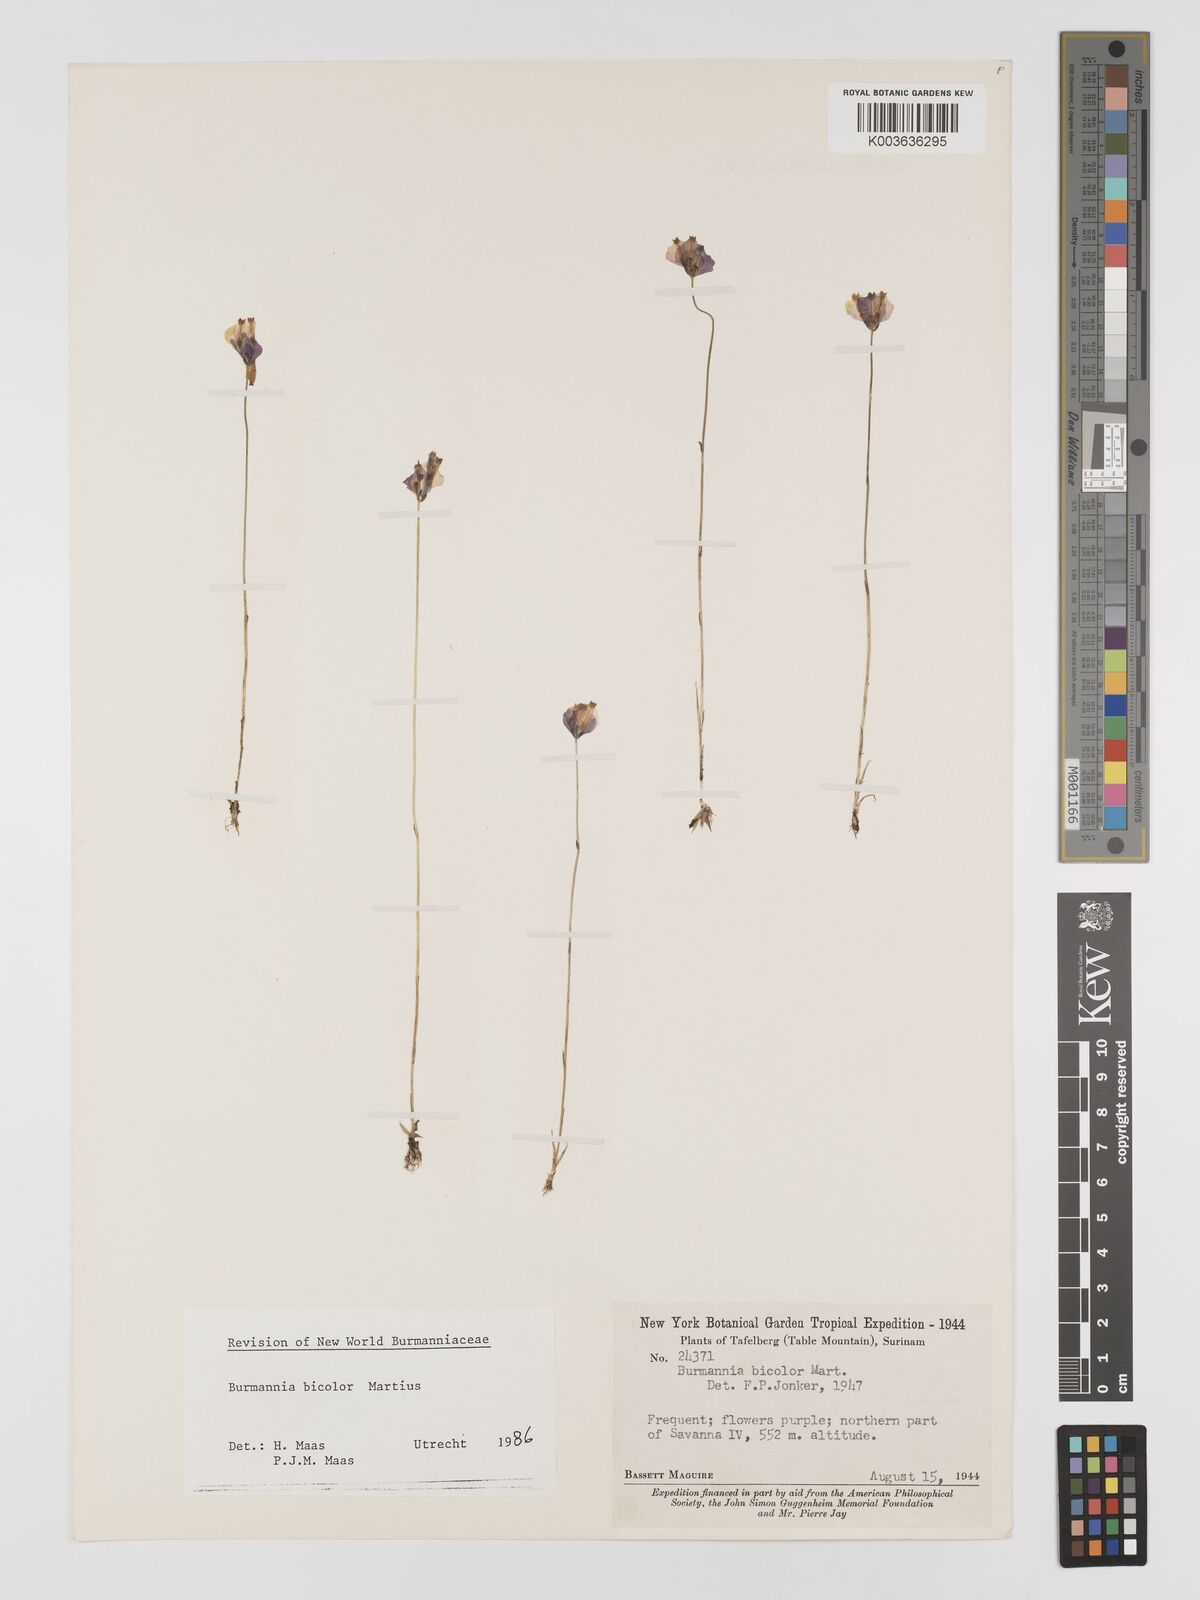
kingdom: Plantae
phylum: Tracheophyta
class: Liliopsida
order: Dioscoreales
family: Burmanniaceae
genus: Burmannia
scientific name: Burmannia bicolor
